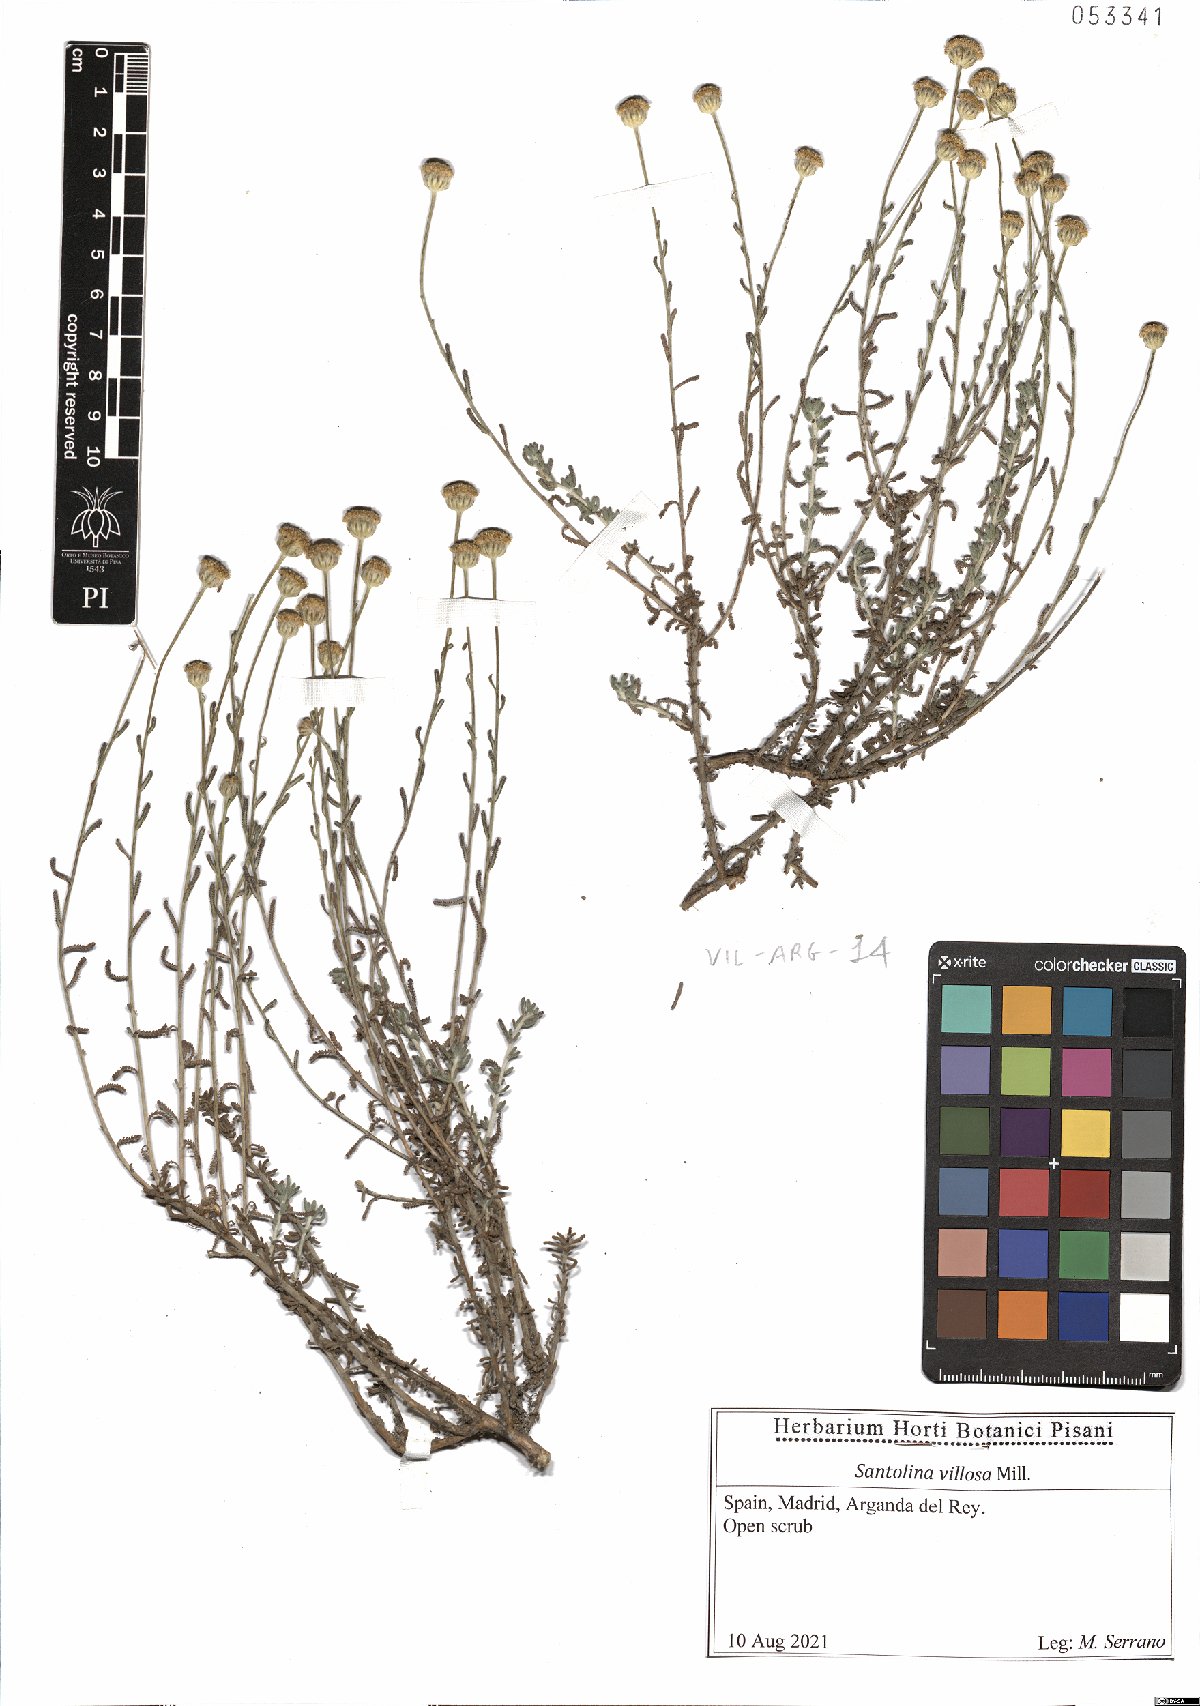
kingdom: Plantae
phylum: Tracheophyta
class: Magnoliopsida
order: Asterales
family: Asteraceae
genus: Santolina
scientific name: Santolina chamaecyparissus
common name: Lavender-cotton
